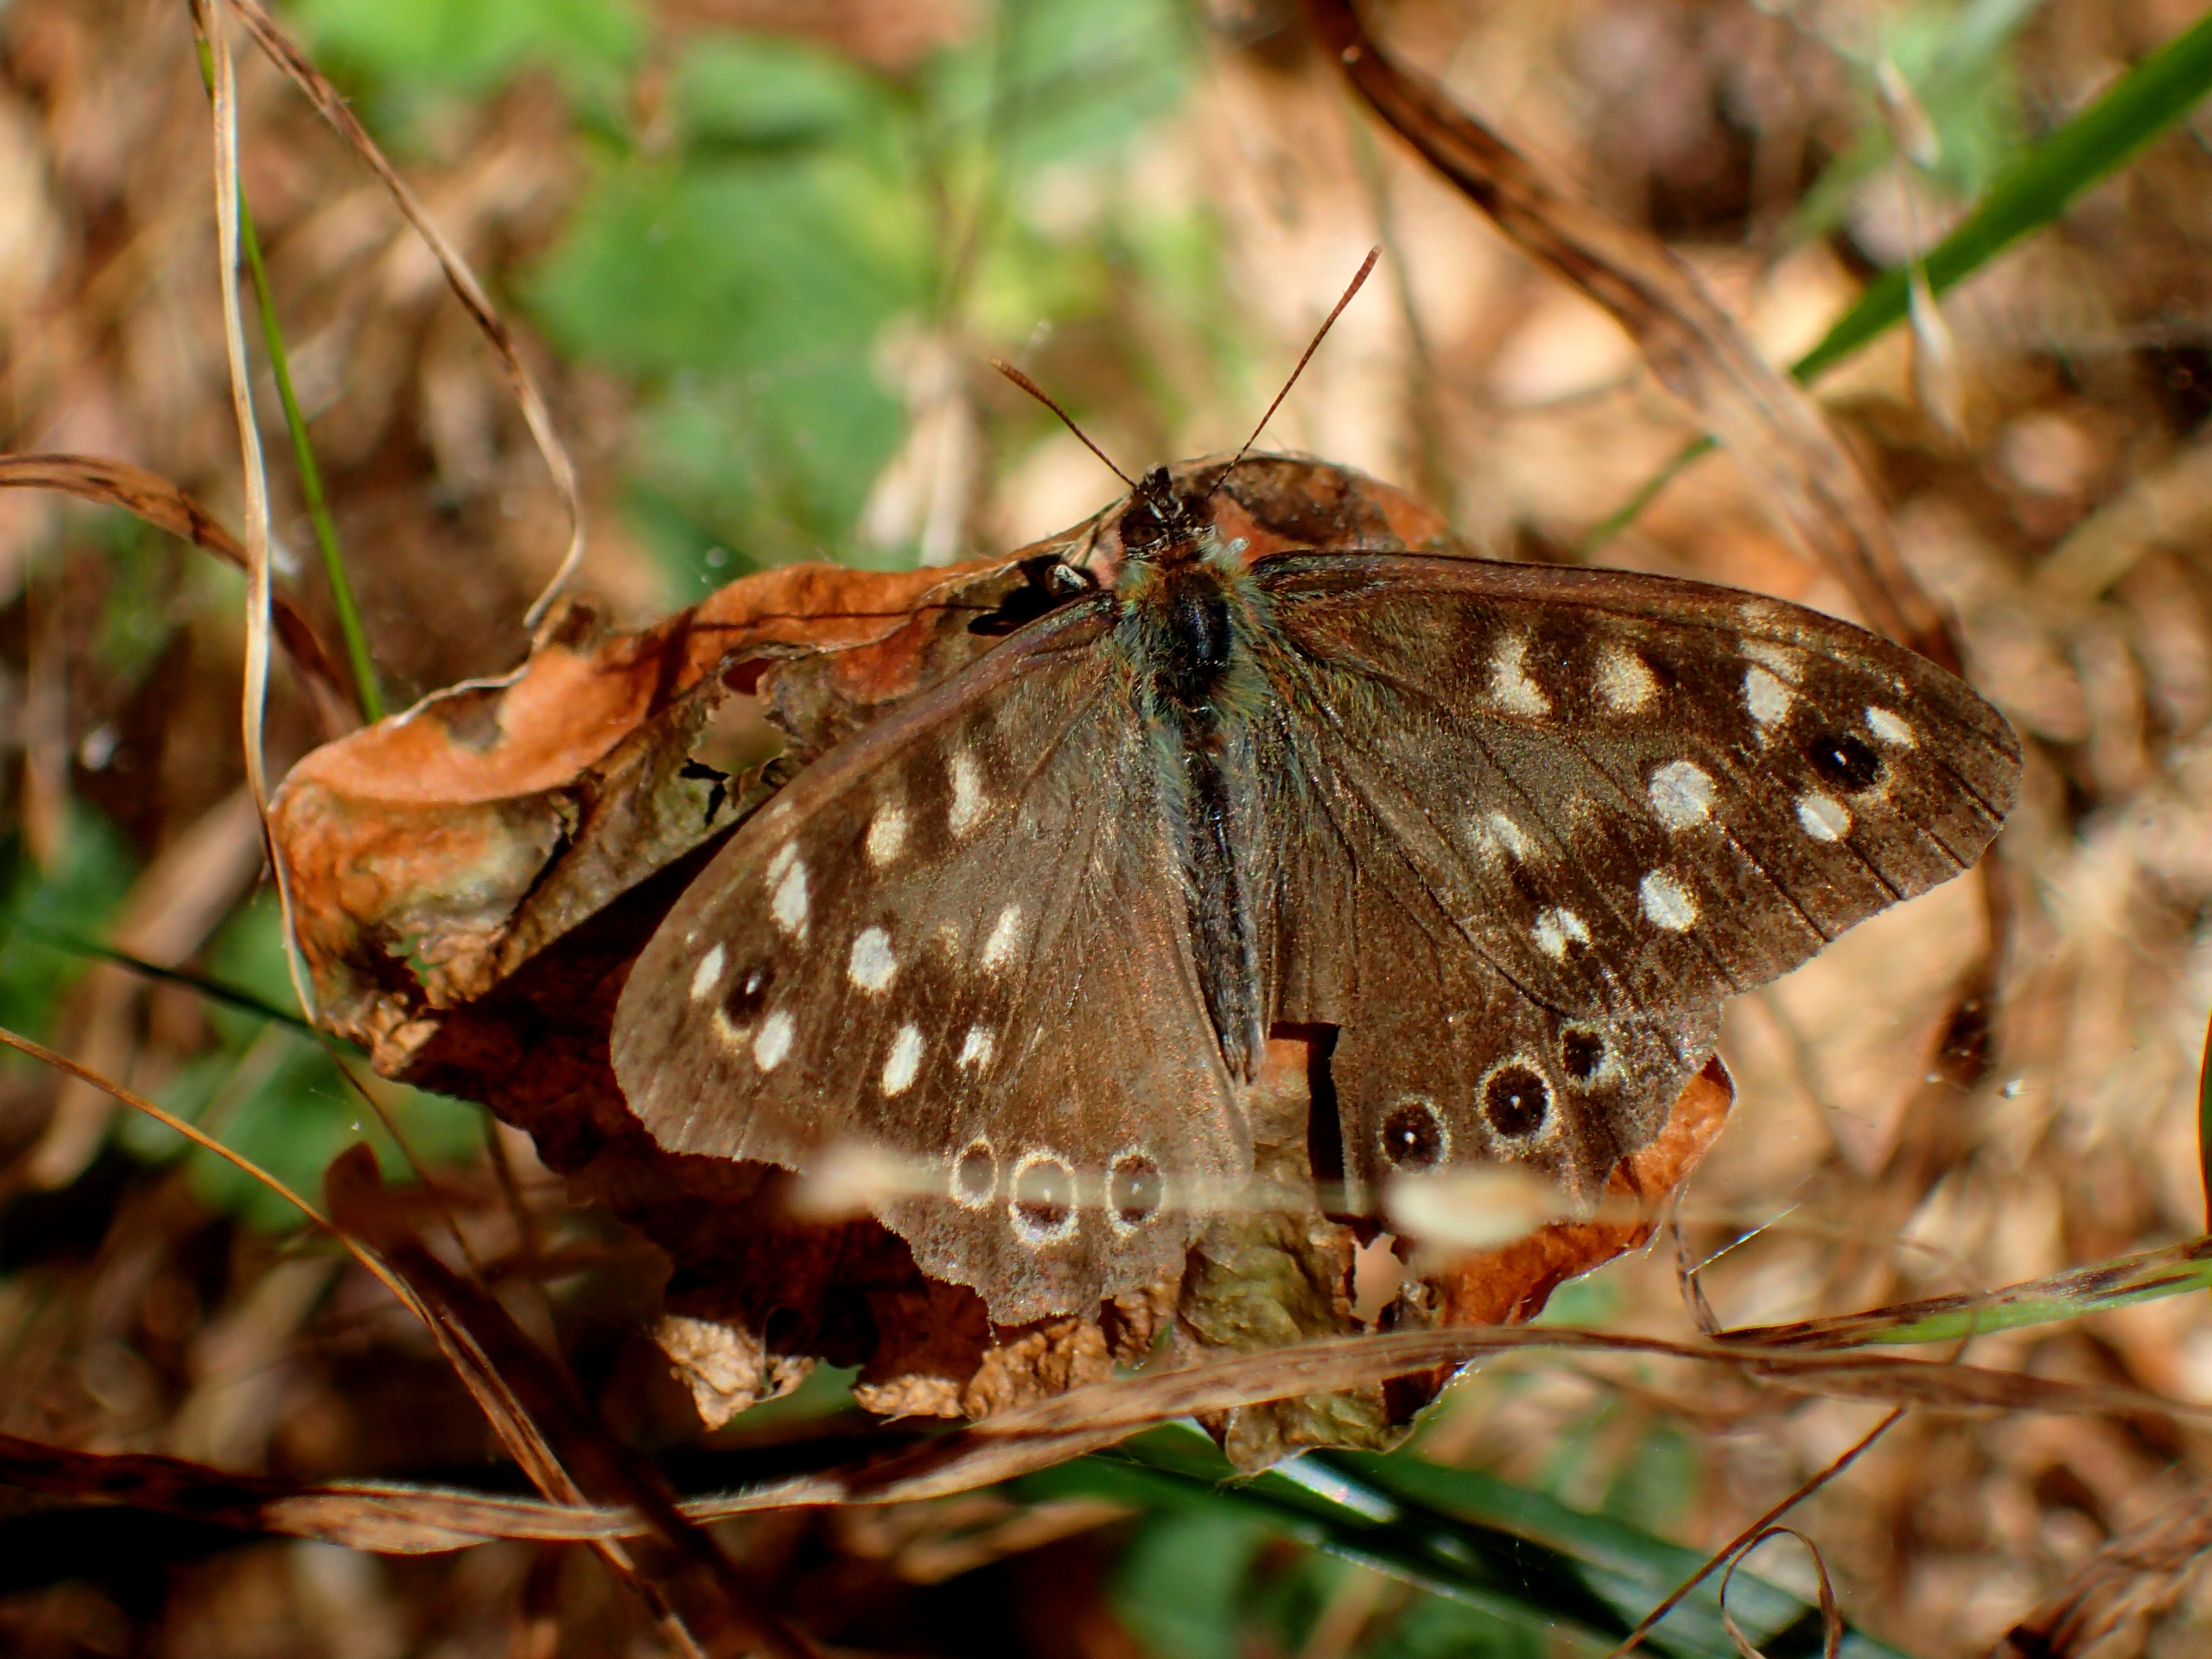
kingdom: Animalia
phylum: Arthropoda
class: Insecta
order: Lepidoptera
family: Nymphalidae
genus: Pararge
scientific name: Pararge aegeria
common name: Skovrandøje
